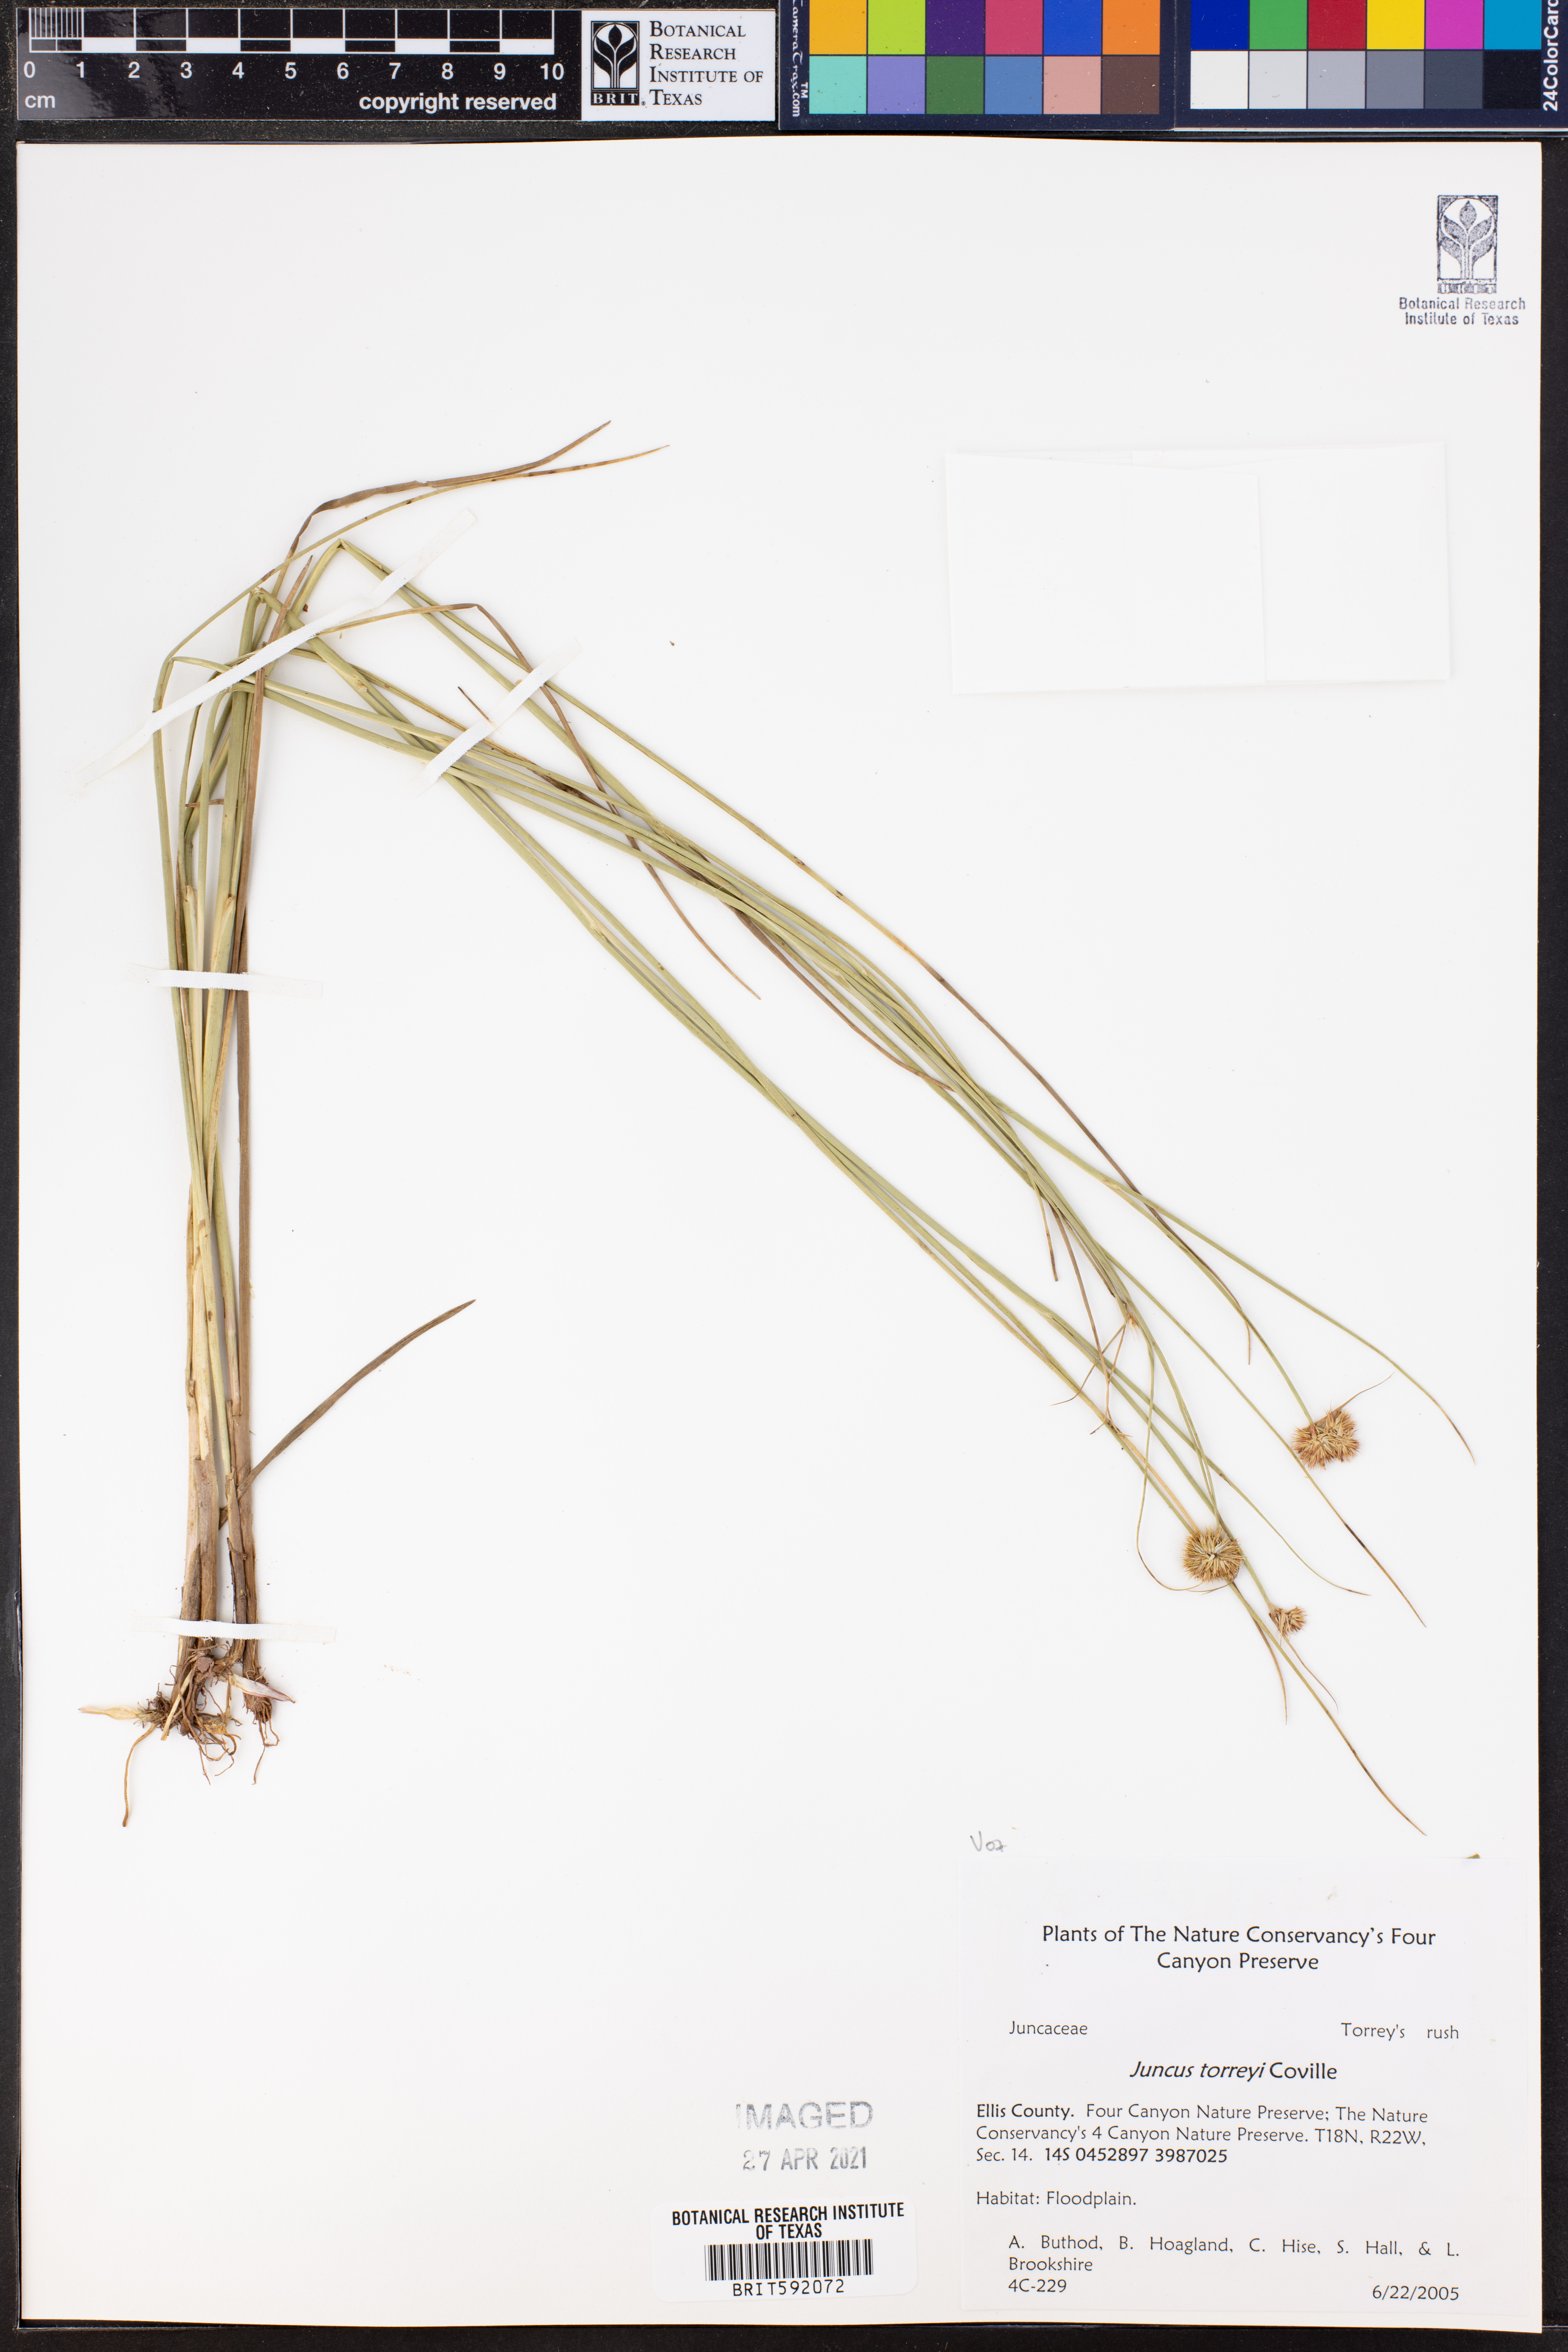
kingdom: Plantae
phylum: Tracheophyta
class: Liliopsida
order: Poales
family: Juncaceae
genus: Juncus
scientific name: Juncus torreyi
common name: Torrey's rush
